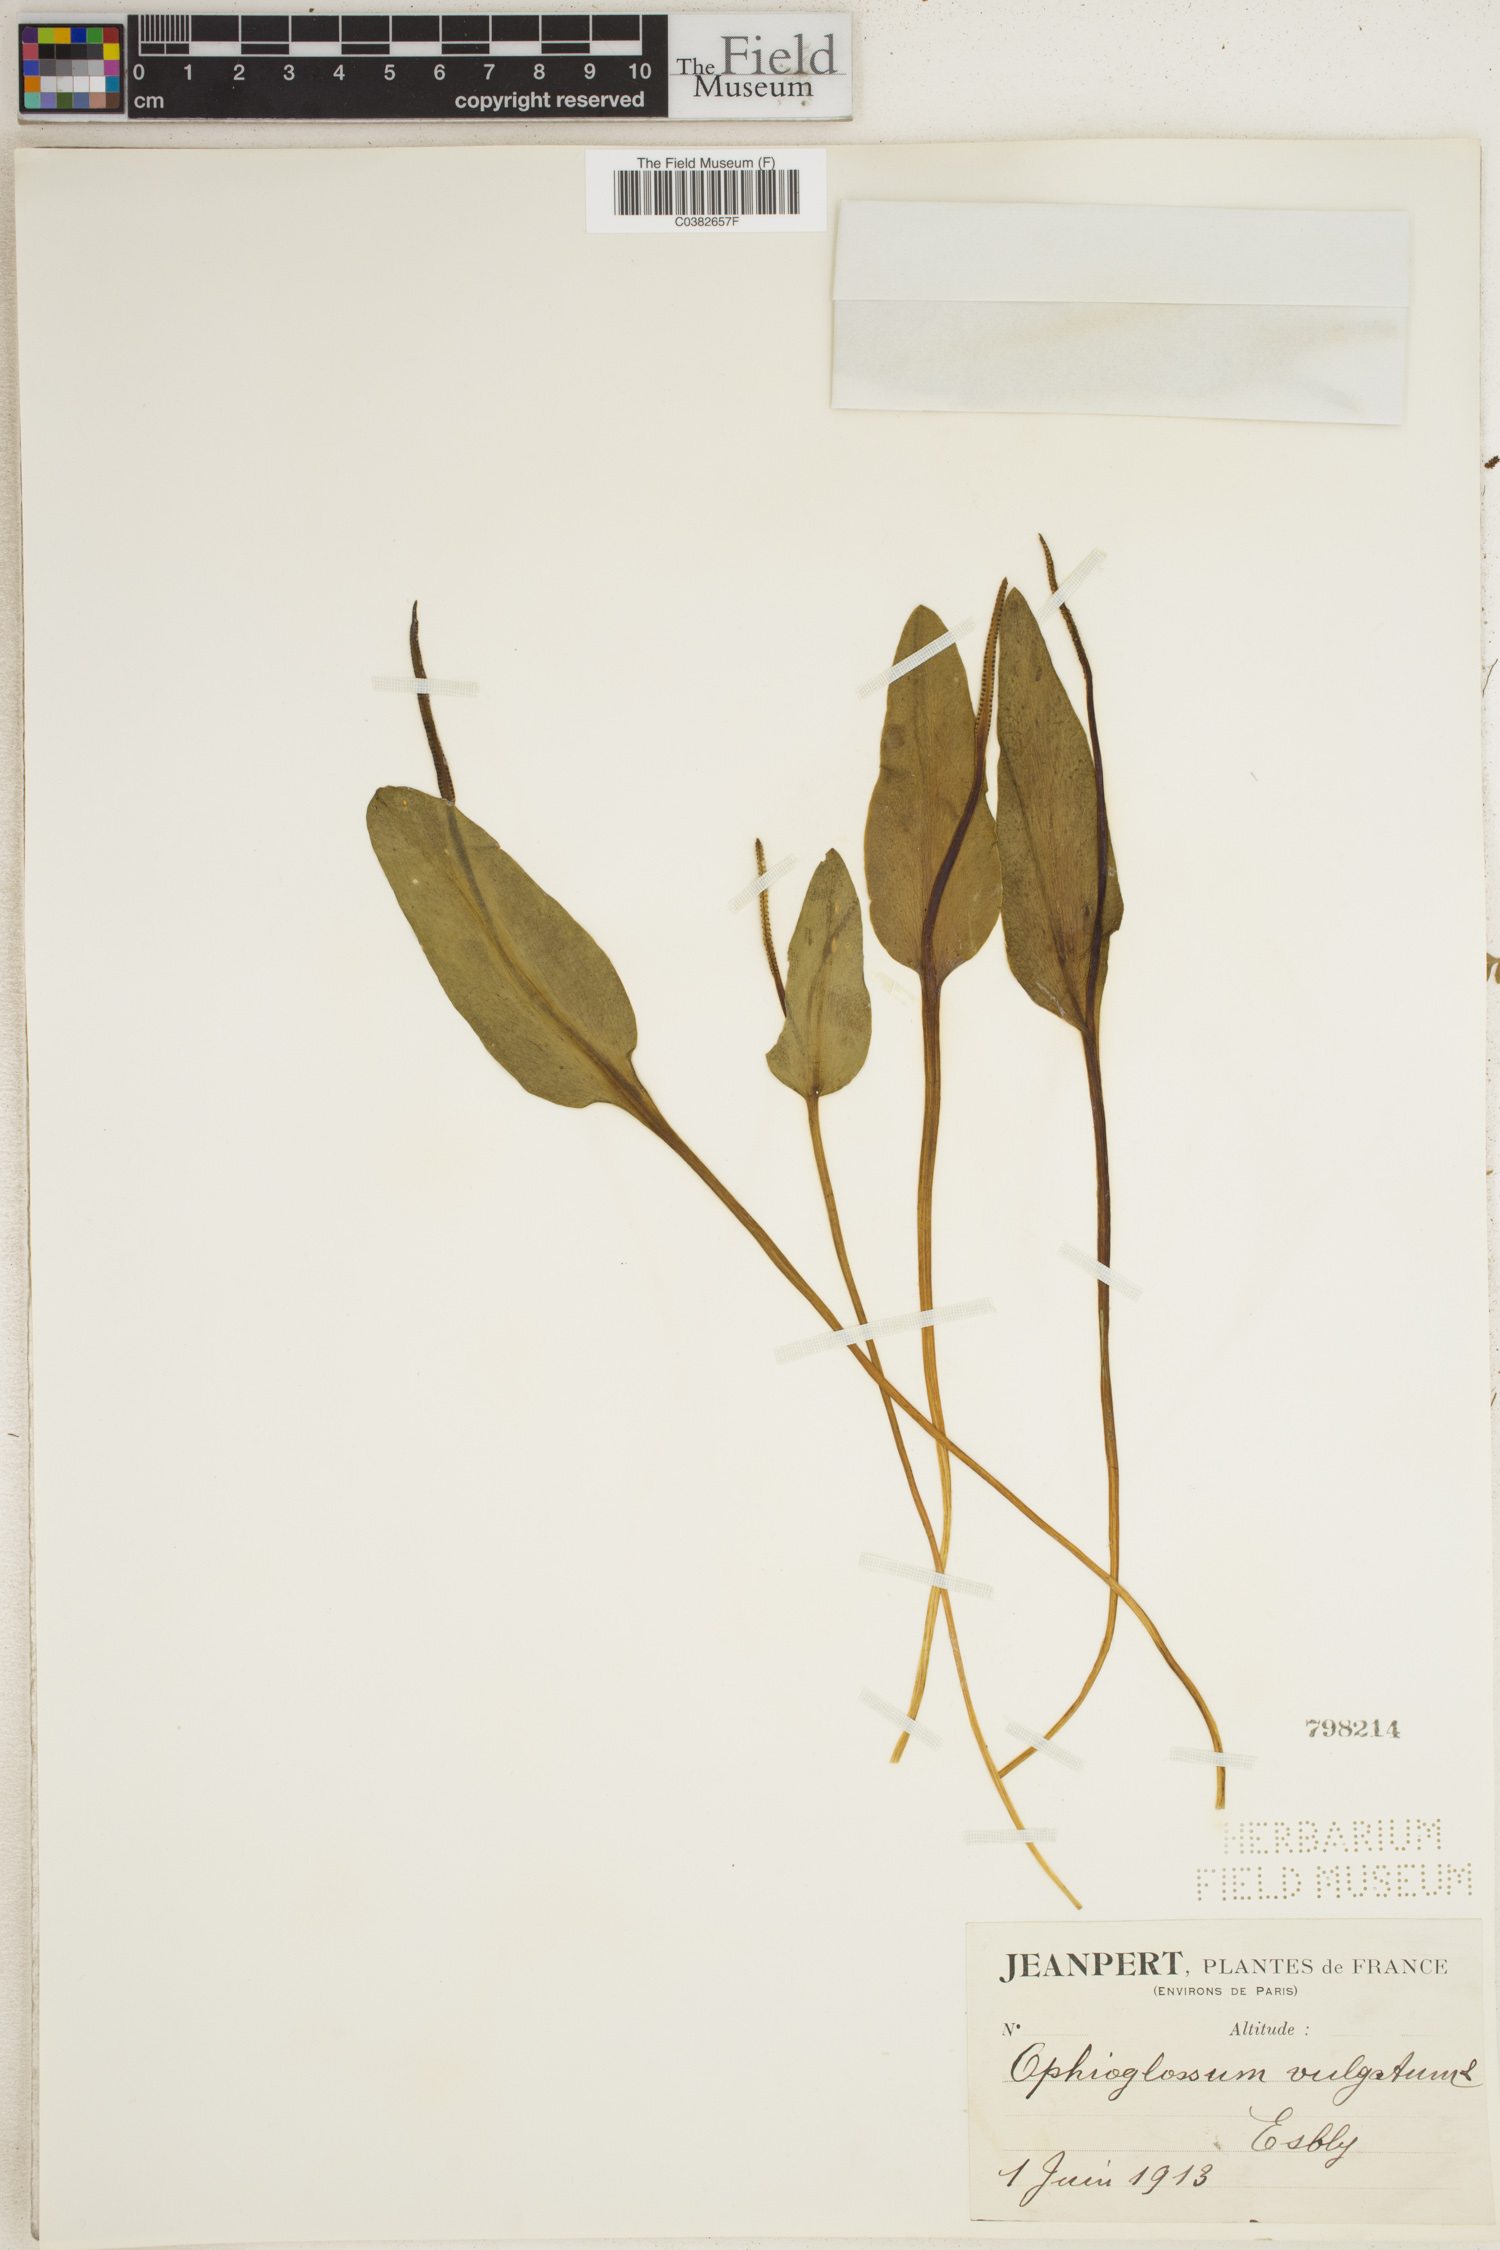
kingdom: Plantae
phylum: Tracheophyta
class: Polypodiopsida
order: Ophioglossales
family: Ophioglossaceae
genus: Ophioglossum
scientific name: Ophioglossum vulgatum
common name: Adder's-tongue
